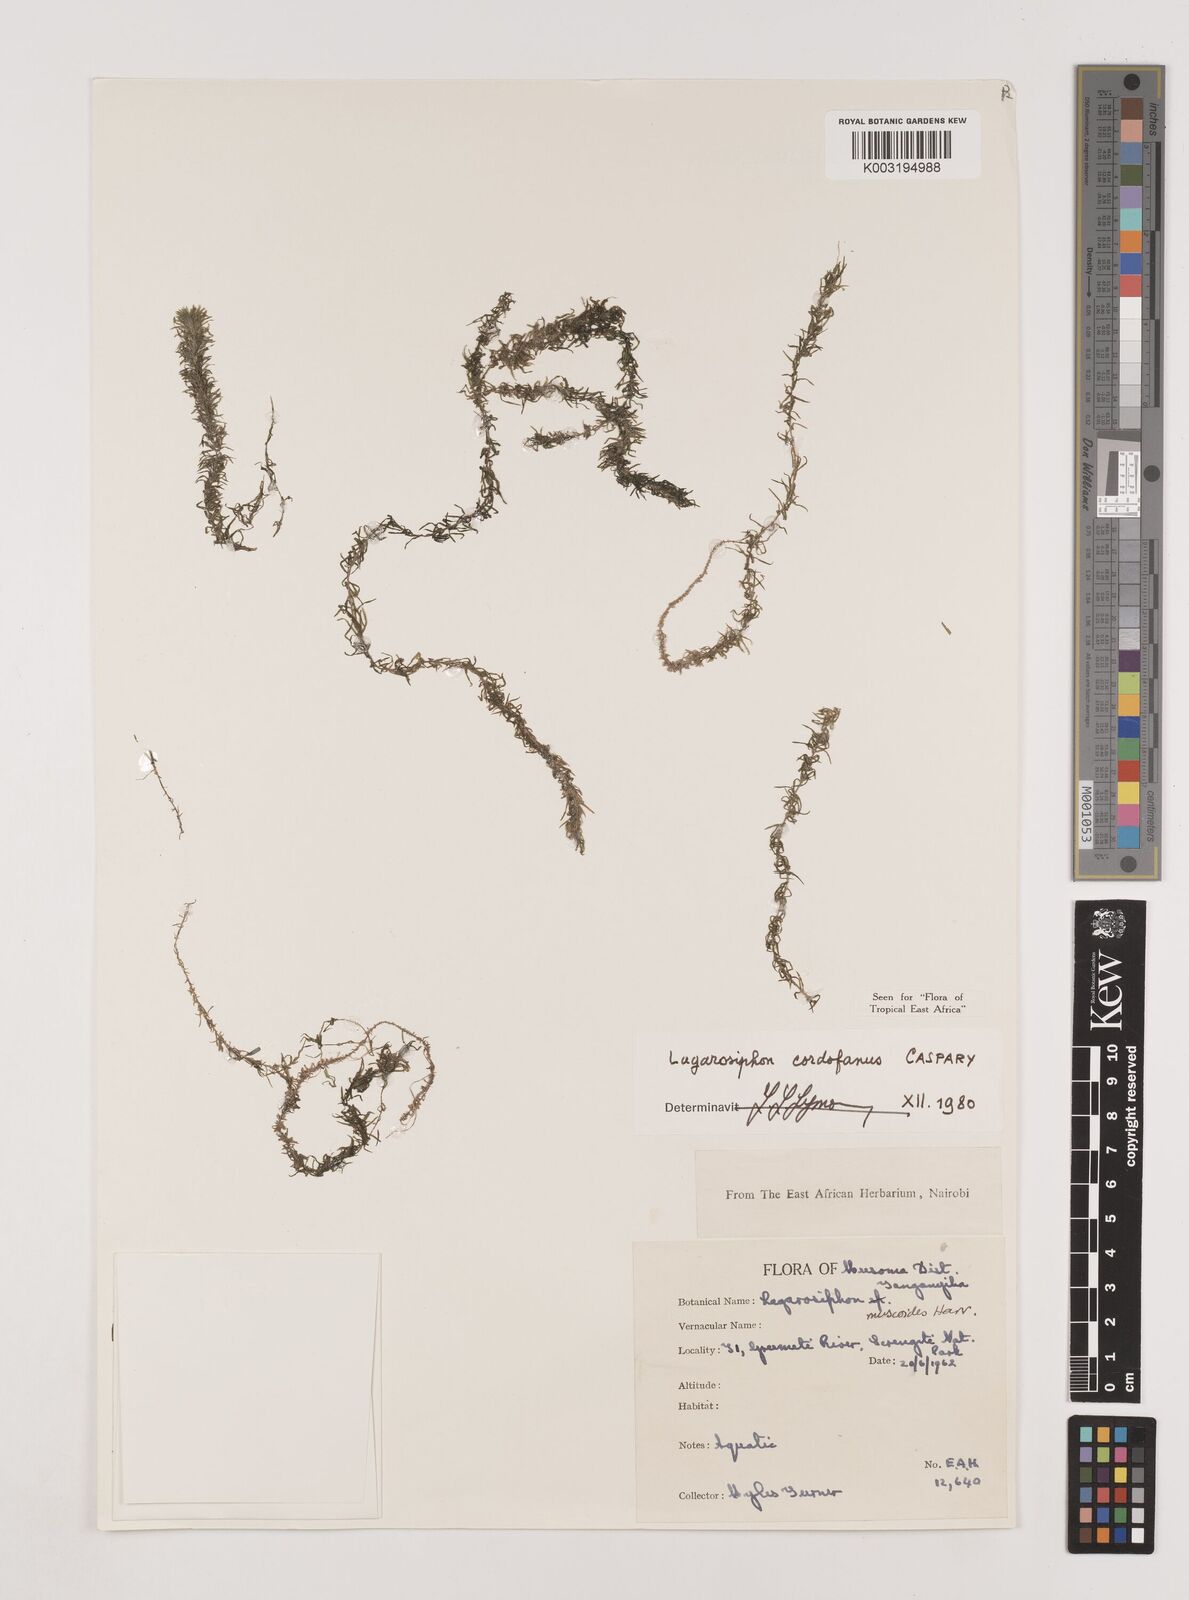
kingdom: Plantae
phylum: Tracheophyta
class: Liliopsida
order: Alismatales
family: Hydrocharitaceae
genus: Lagarosiphon
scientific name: Lagarosiphon cordofanus
